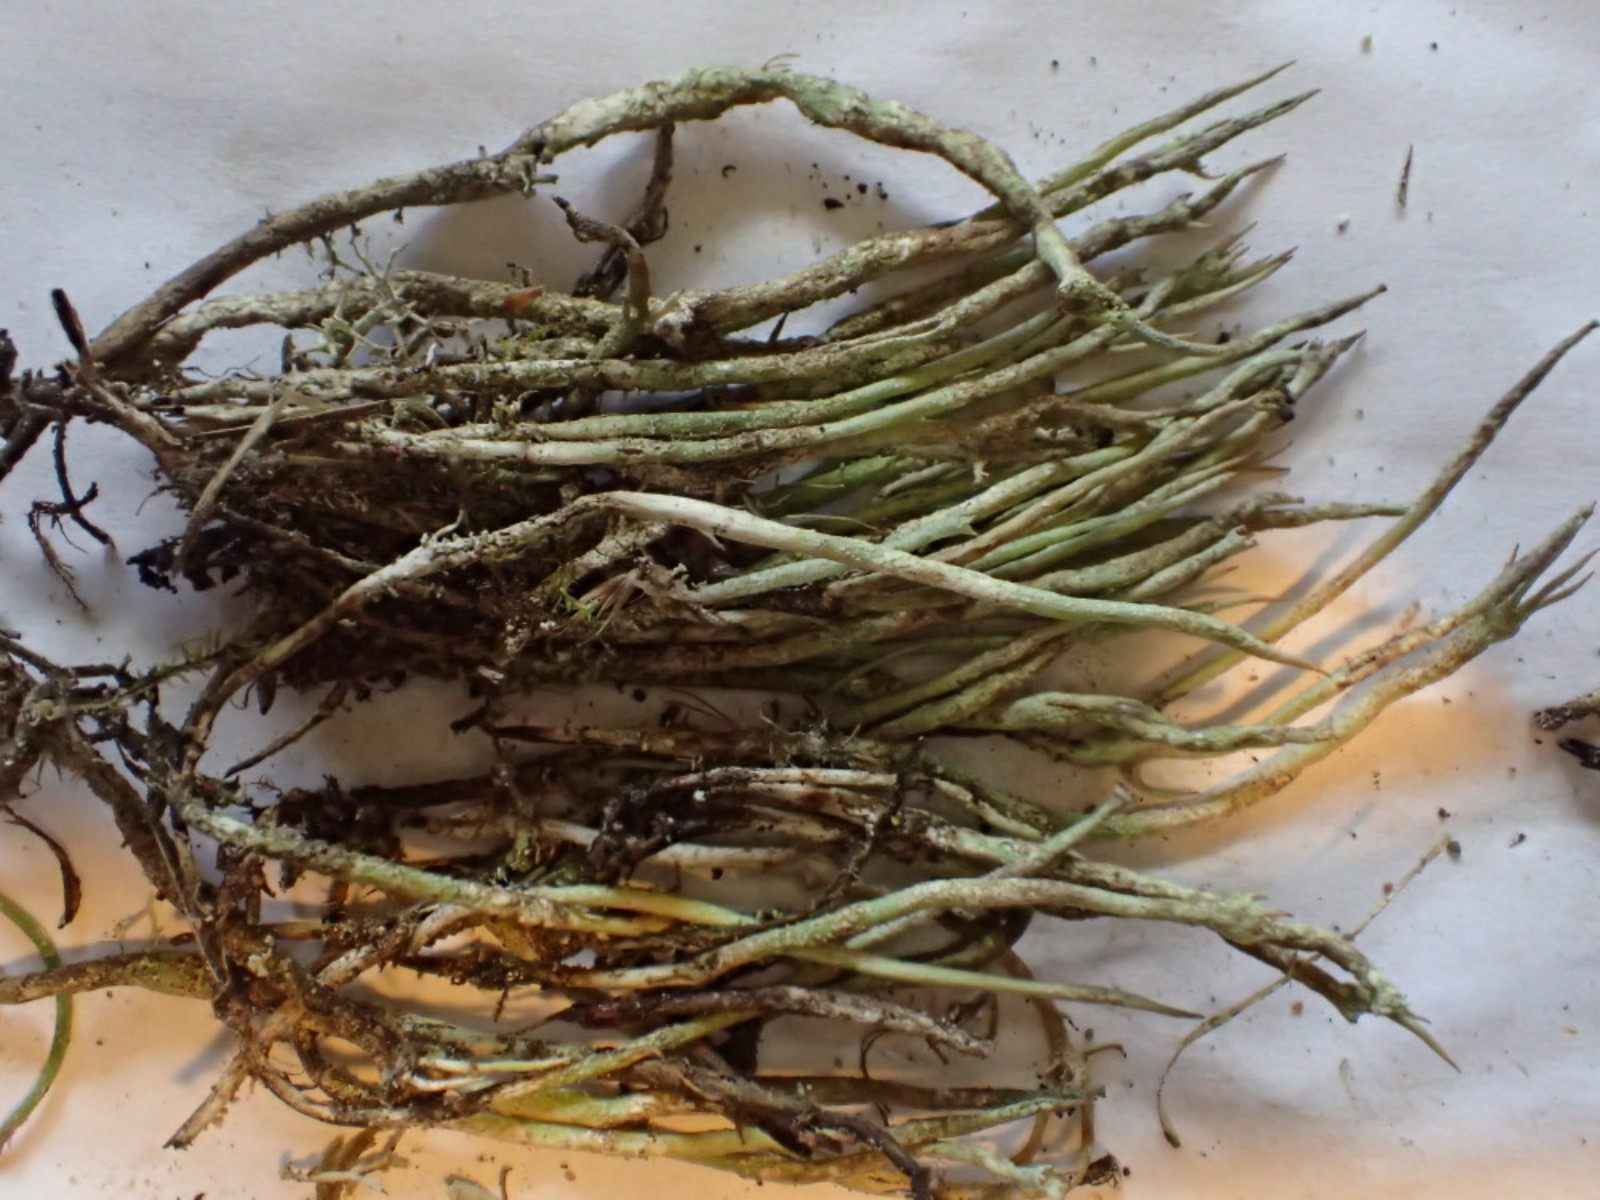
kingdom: Fungi
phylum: Ascomycota
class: Lecanoromycetes
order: Lecanorales
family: Cladoniaceae
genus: Cladonia
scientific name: Cladonia gracilis
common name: slank bægerlav
